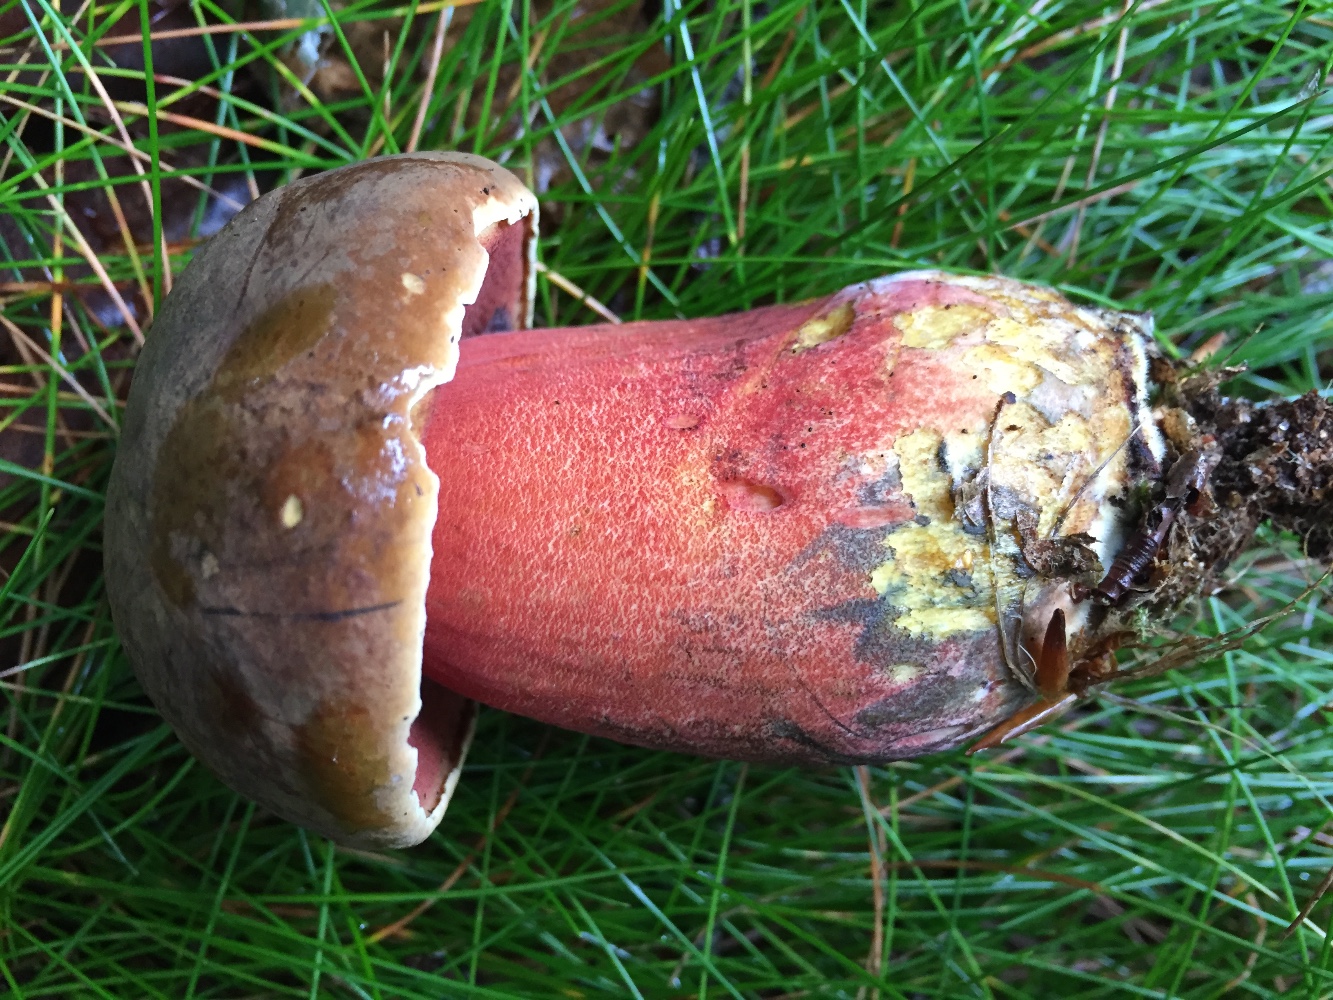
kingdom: Fungi
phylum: Basidiomycota
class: Agaricomycetes
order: Boletales
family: Boletaceae
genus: Neoboletus
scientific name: Neoboletus erythropus
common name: punktstokket indigorørhat
